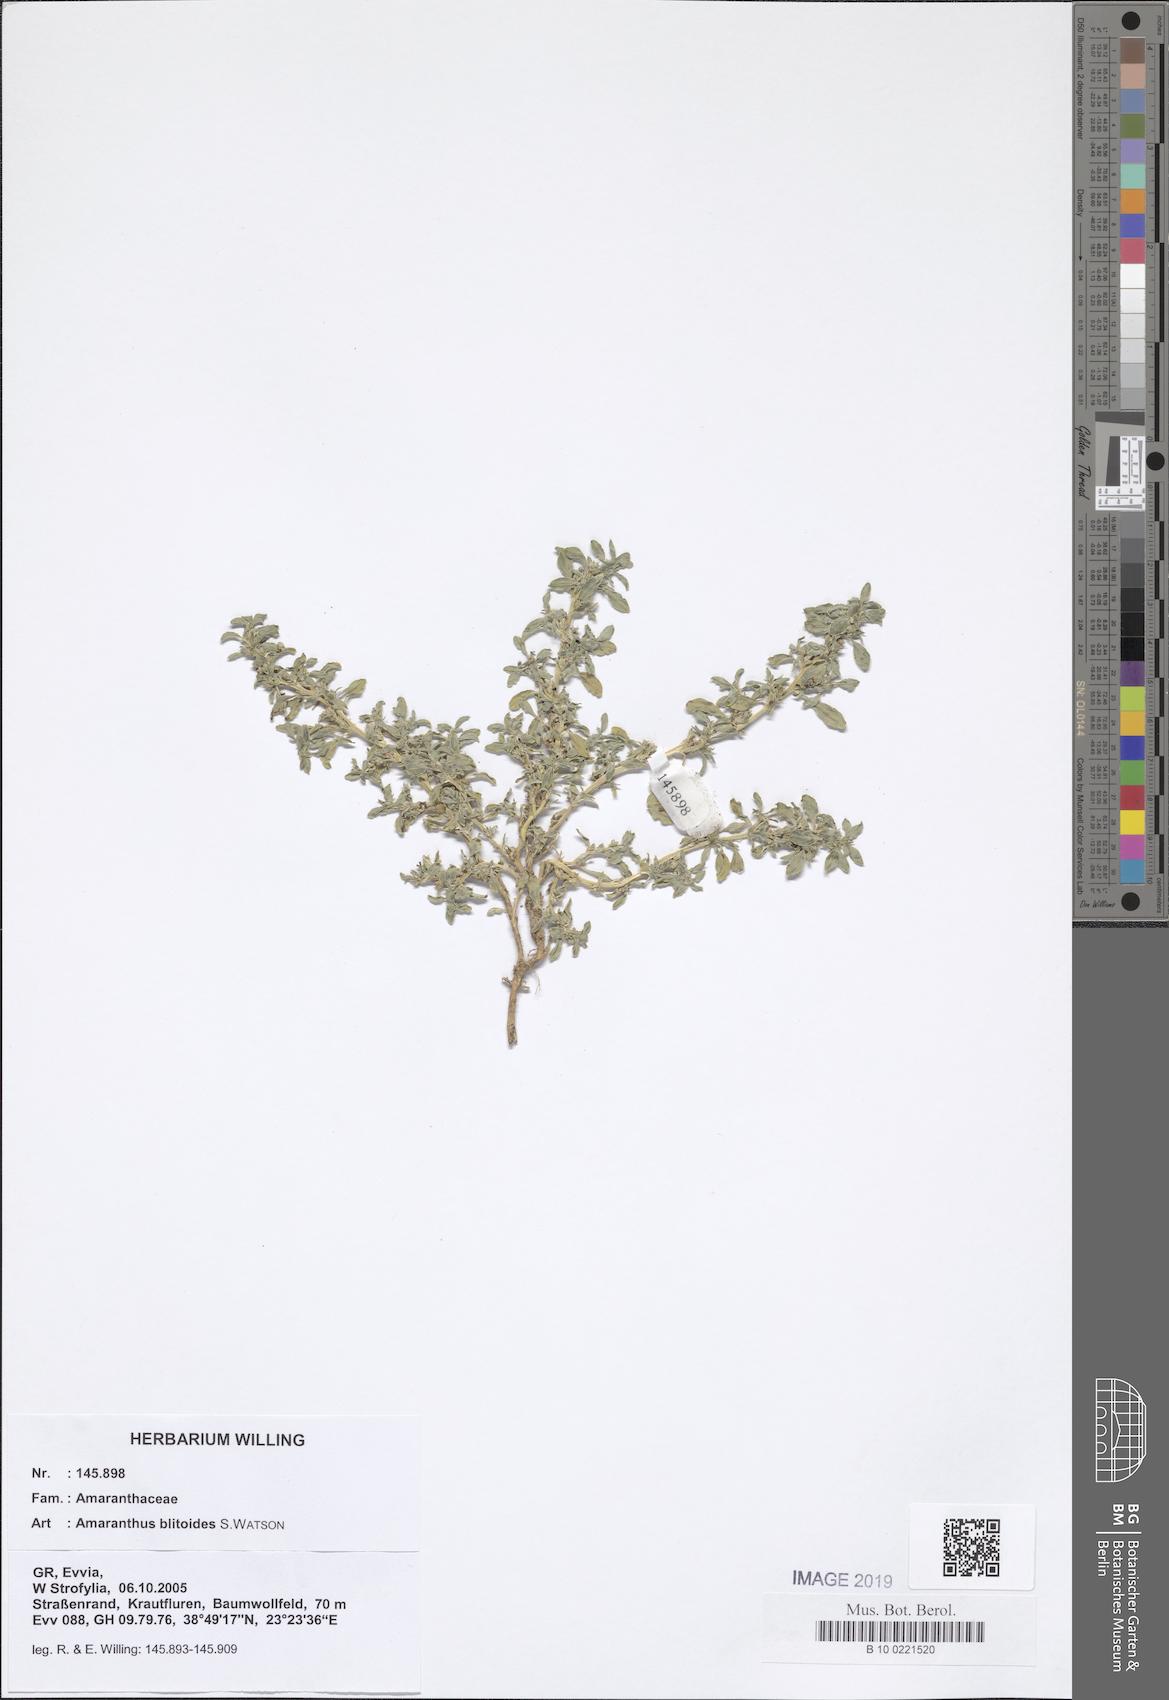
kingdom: Plantae
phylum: Tracheophyta
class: Magnoliopsida
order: Caryophyllales
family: Amaranthaceae
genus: Amaranthus
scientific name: Amaranthus blitoides
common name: Prostrate pigweed
